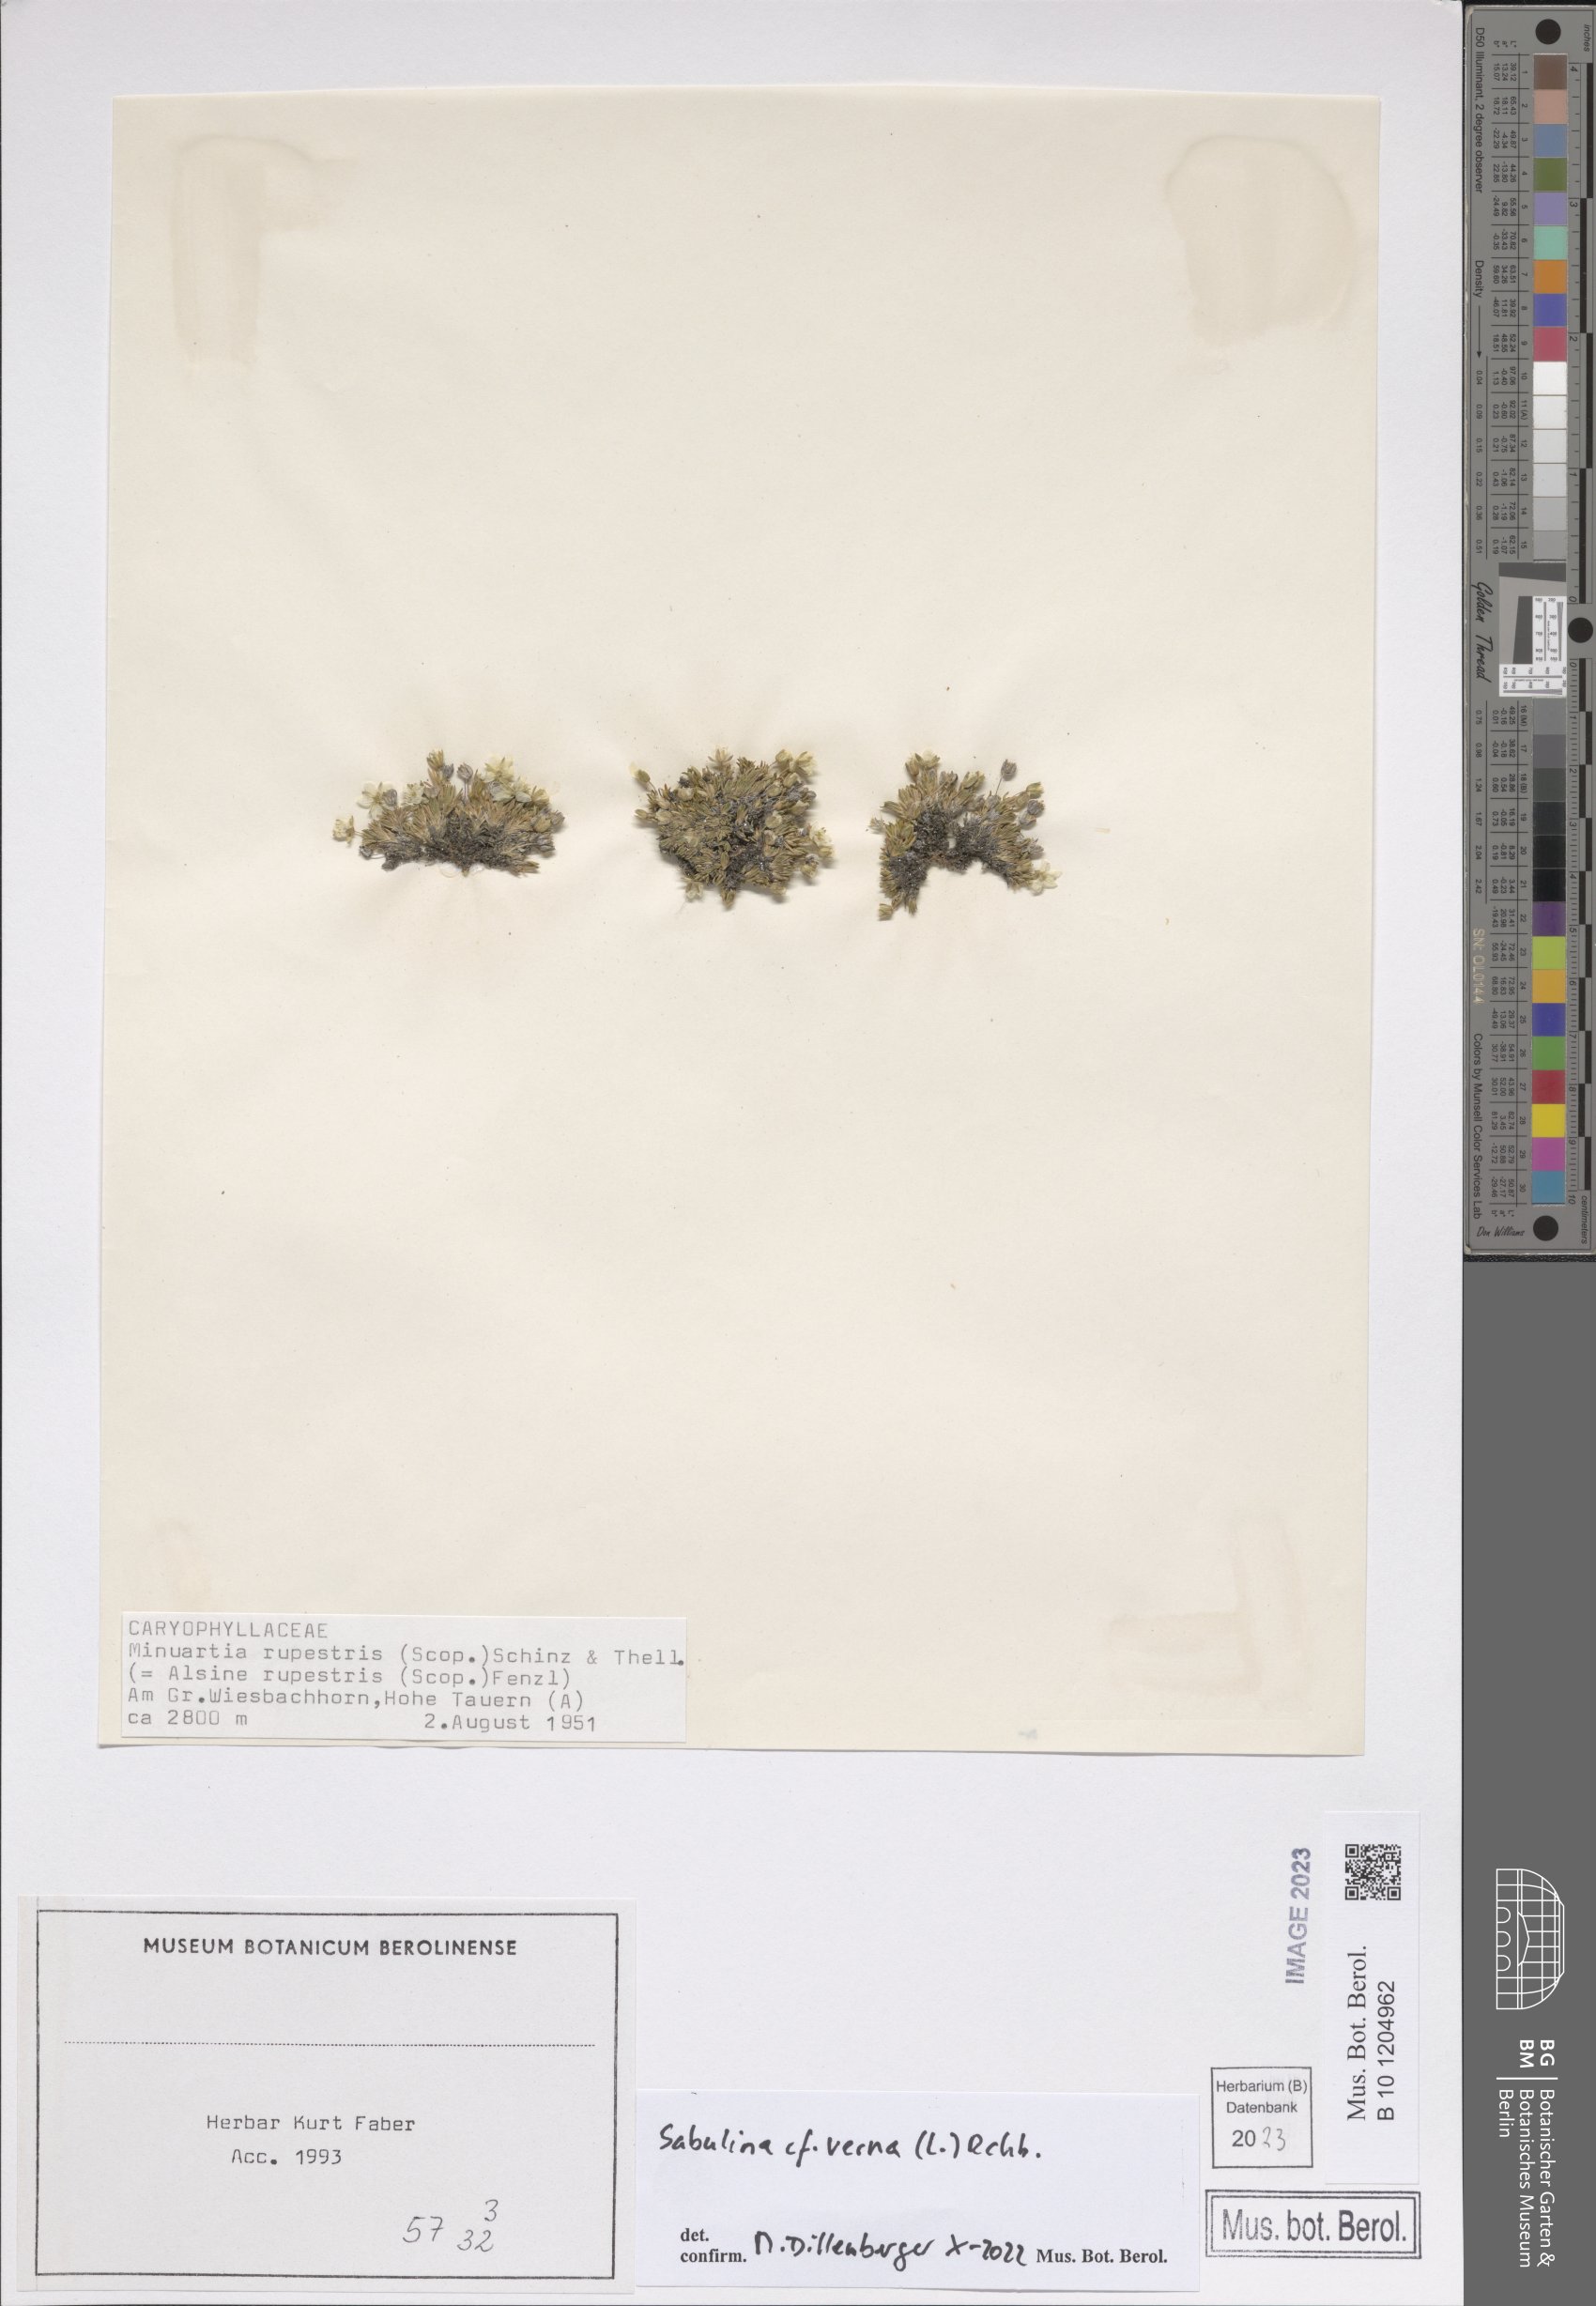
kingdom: Plantae
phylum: Tracheophyta
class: Magnoliopsida
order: Caryophyllales
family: Caryophyllaceae
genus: Sabulina
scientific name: Sabulina verna
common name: Spring sandwort
